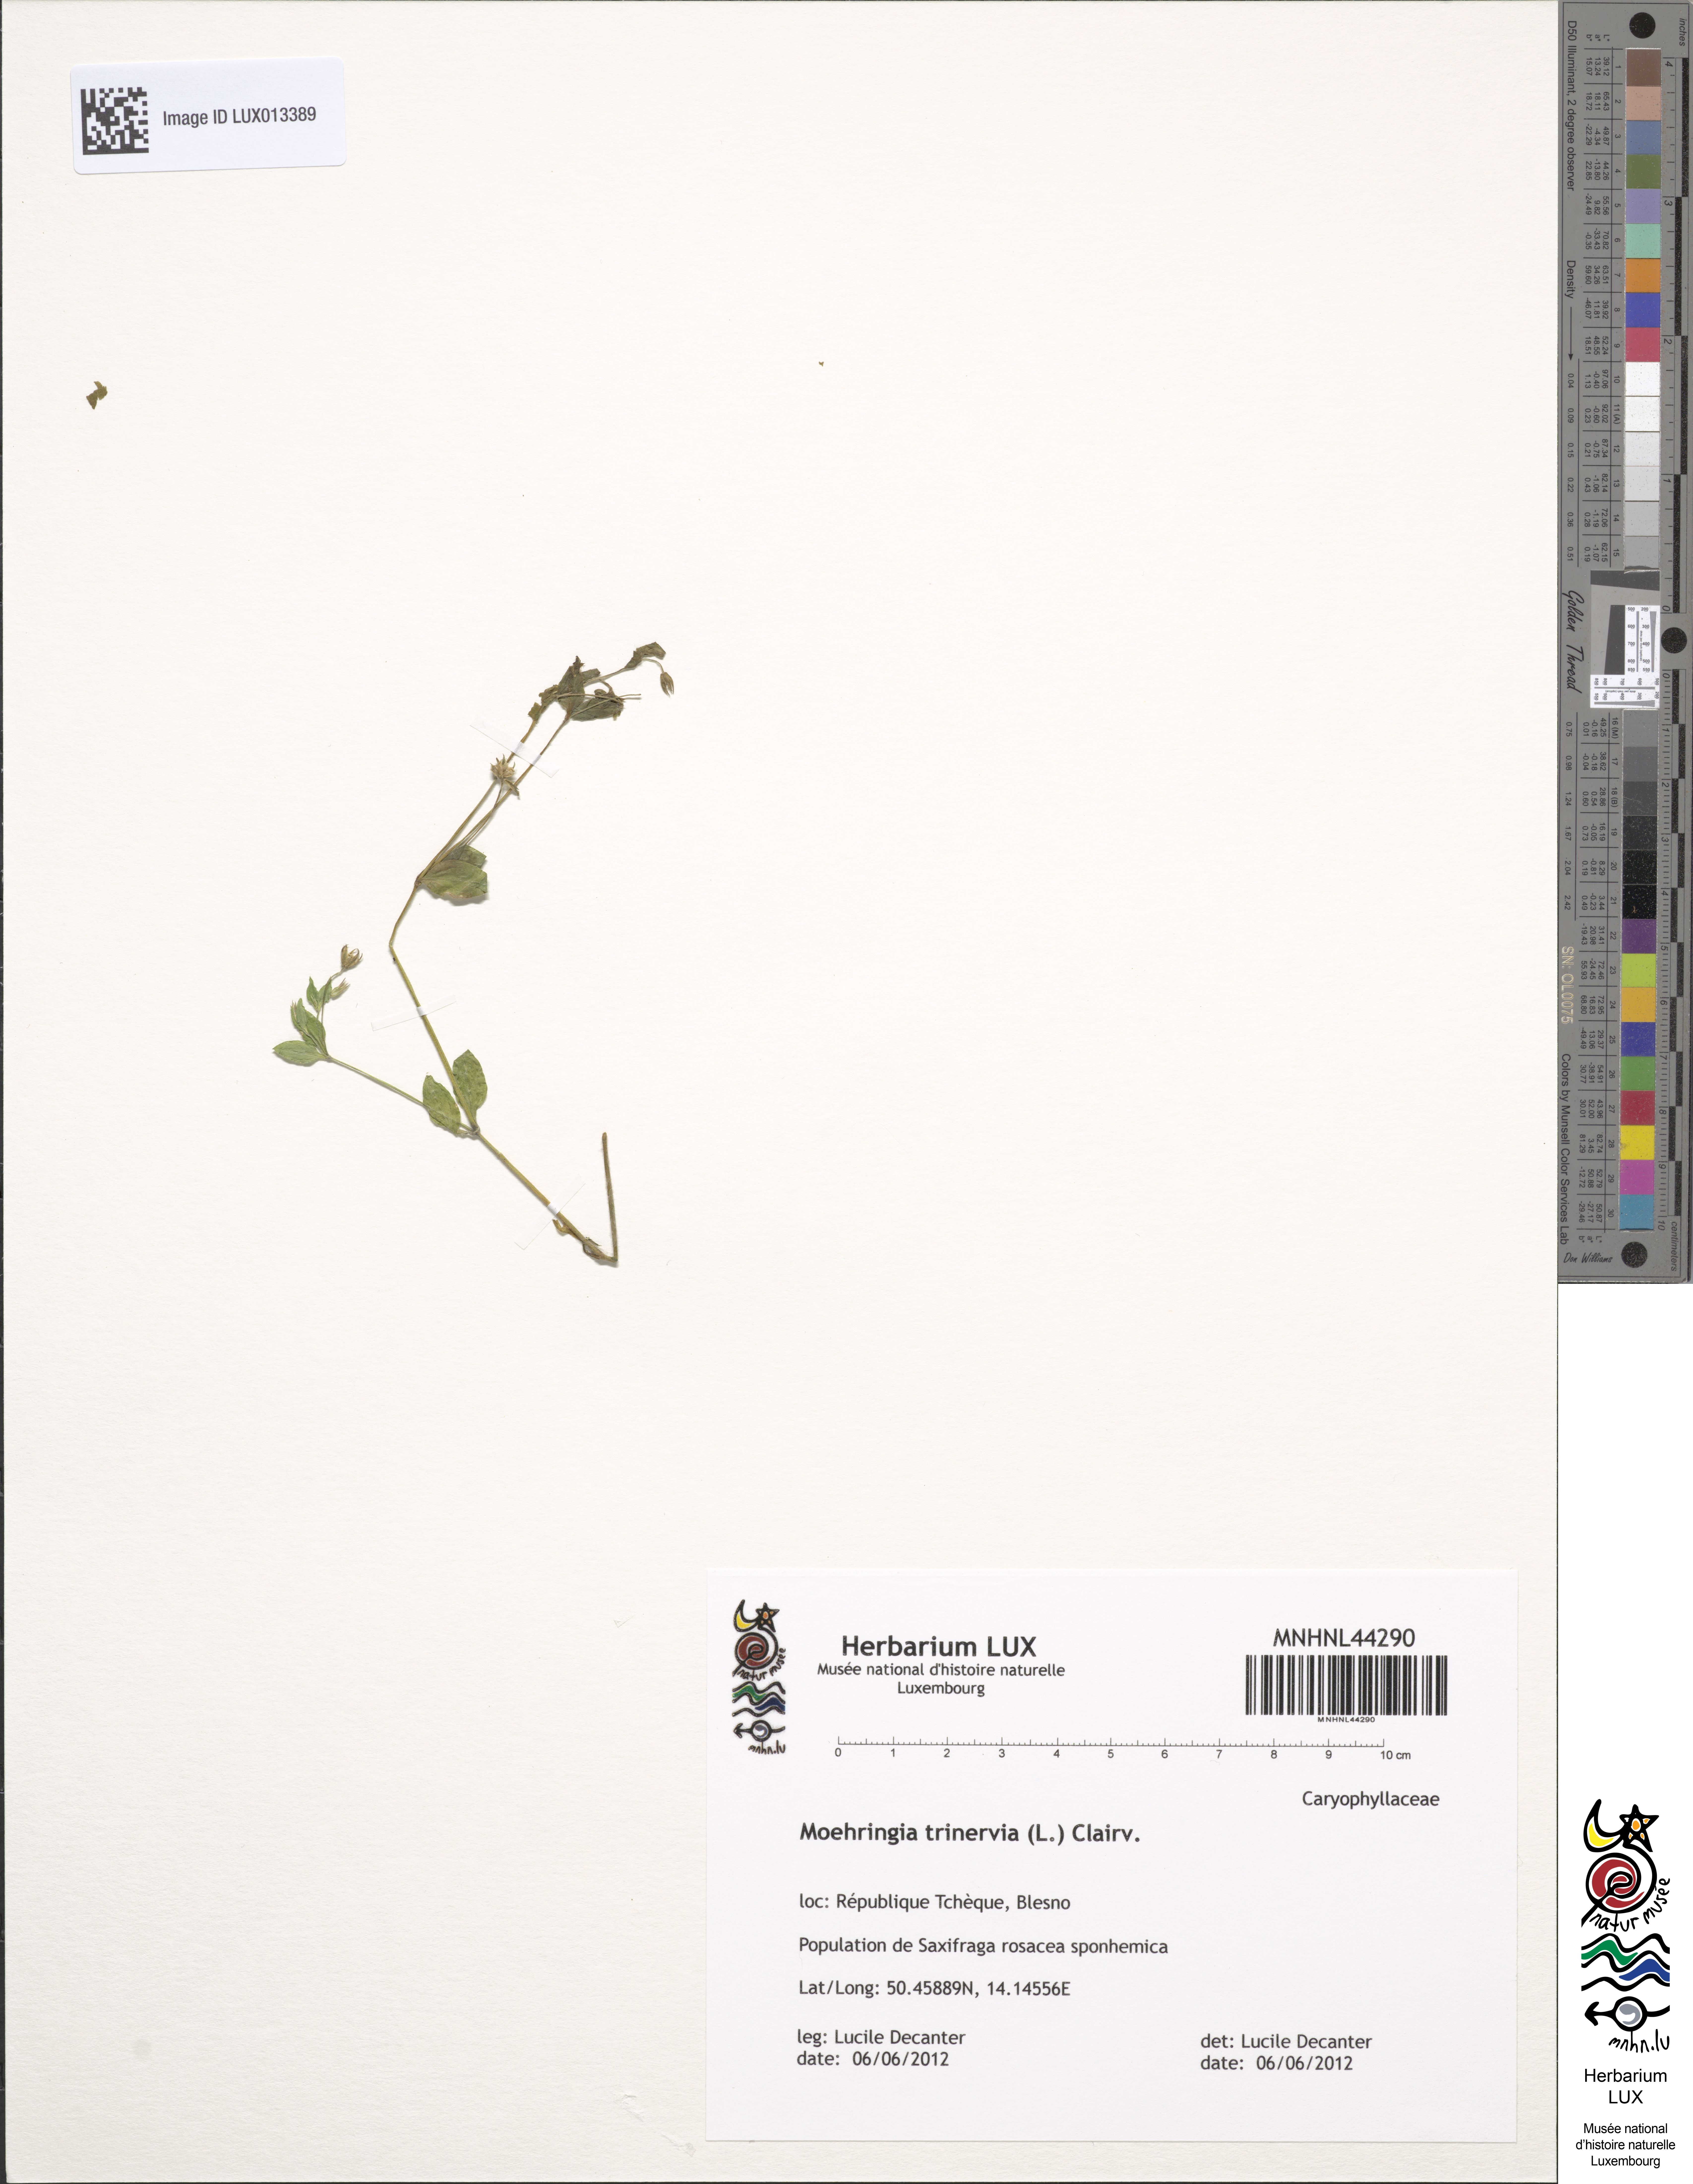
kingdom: Plantae
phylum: Tracheophyta
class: Magnoliopsida
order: Caryophyllales
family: Caryophyllaceae
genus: Moehringia
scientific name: Moehringia trinervia
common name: Three-nerved sandwort
